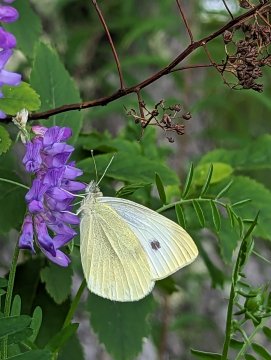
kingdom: Animalia
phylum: Arthropoda
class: Insecta
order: Lepidoptera
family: Pieridae
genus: Pieris
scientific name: Pieris rapae
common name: Cabbage White
